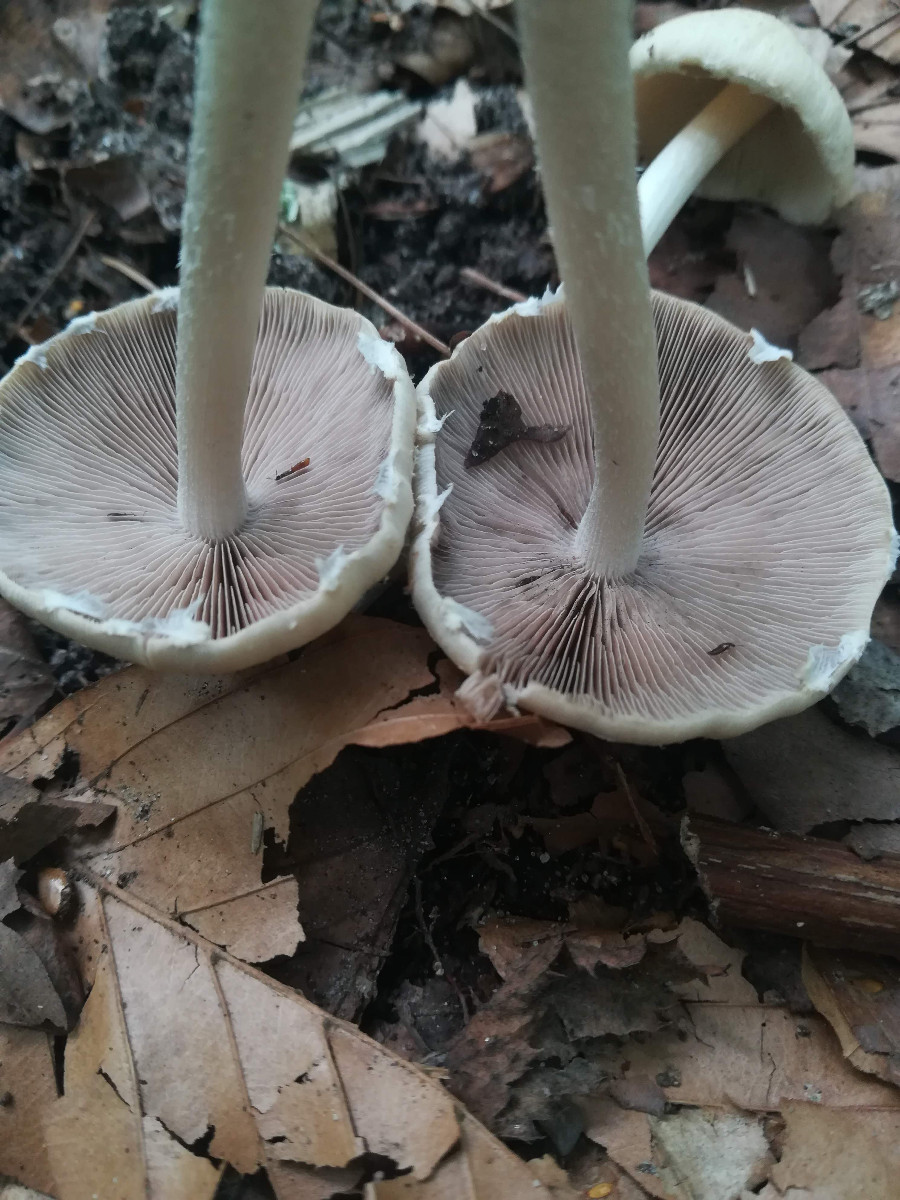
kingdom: Fungi
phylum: Basidiomycota
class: Agaricomycetes
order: Agaricales
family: Psathyrellaceae
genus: Candolleomyces
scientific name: Candolleomyces candolleanus
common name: Candolles mørkhat
